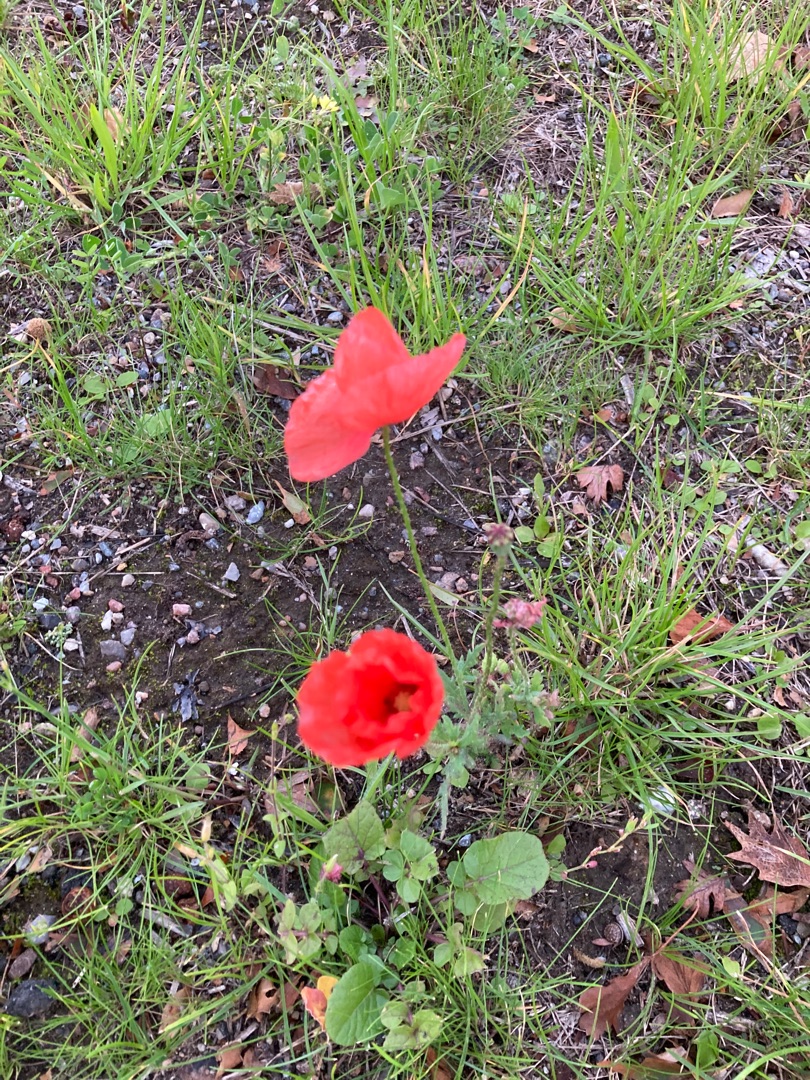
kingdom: Plantae
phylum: Tracheophyta
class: Magnoliopsida
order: Ranunculales
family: Papaveraceae
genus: Papaver
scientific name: Papaver rhoeas
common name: Korn-valmue
